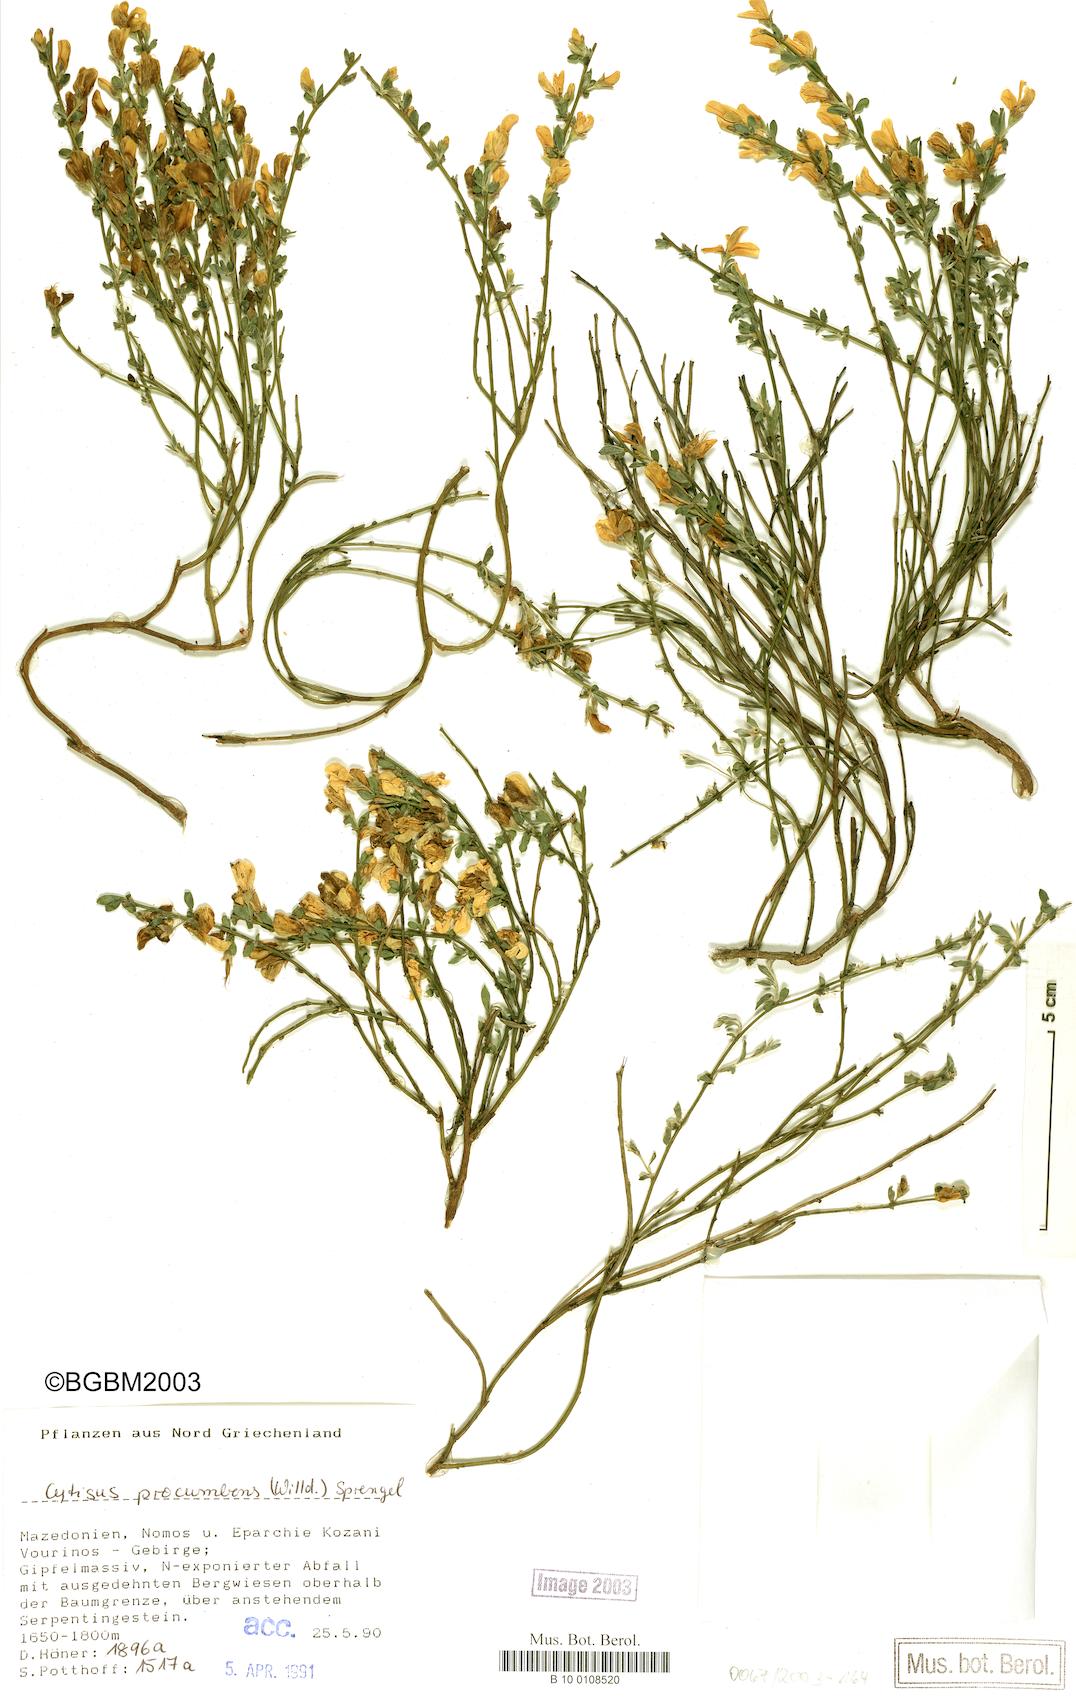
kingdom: Plantae
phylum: Tracheophyta
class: Magnoliopsida
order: Fabales
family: Fabaceae
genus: Cytisus
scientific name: Cytisus procumbens
